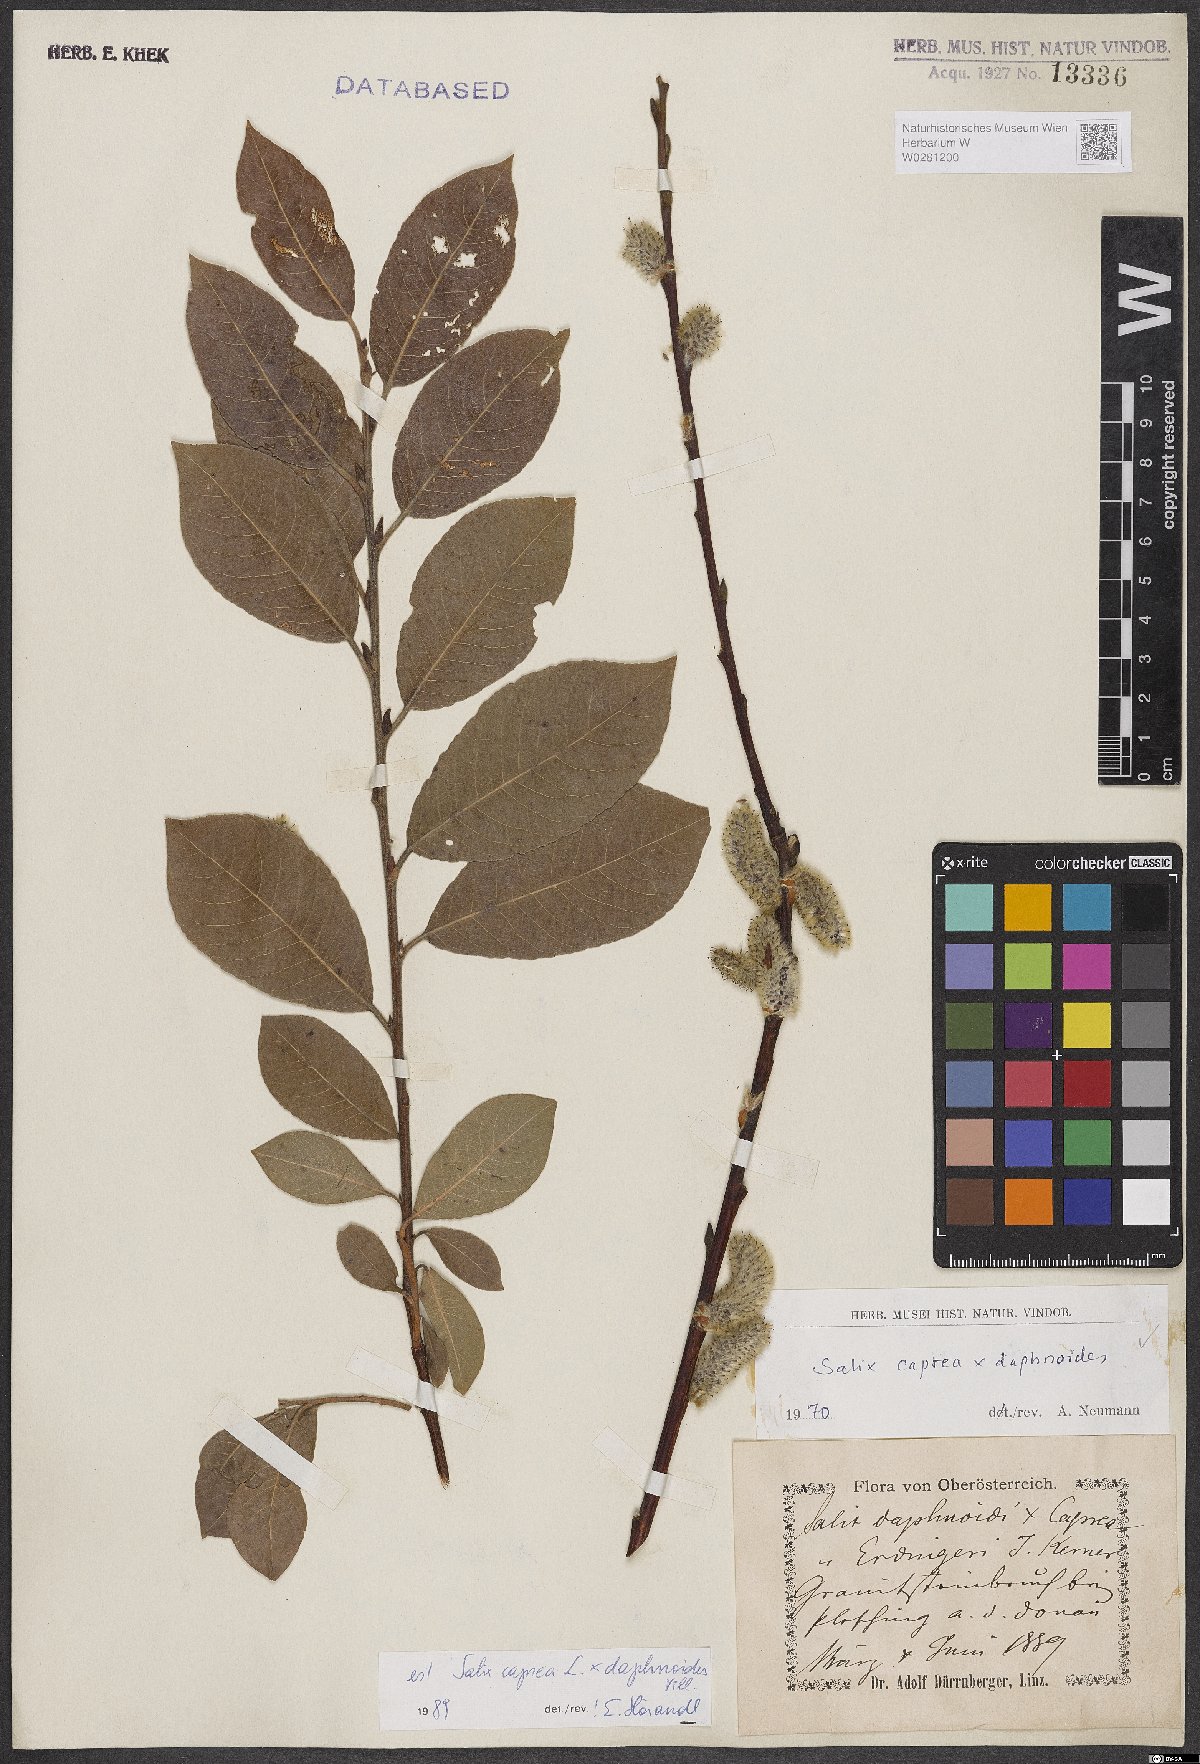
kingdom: Plantae
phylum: Tracheophyta
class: Magnoliopsida
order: Malpighiales
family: Salicaceae
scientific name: Salicaceae
